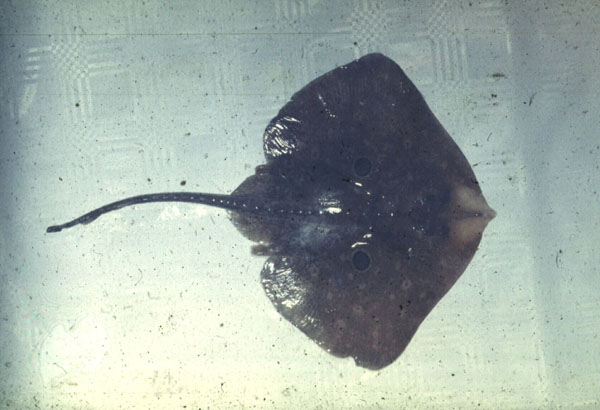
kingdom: Animalia
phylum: Chordata
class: Elasmobranchii
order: Rajiformes
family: Rajidae
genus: Raja
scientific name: Raja miraletus
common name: Brown ray
